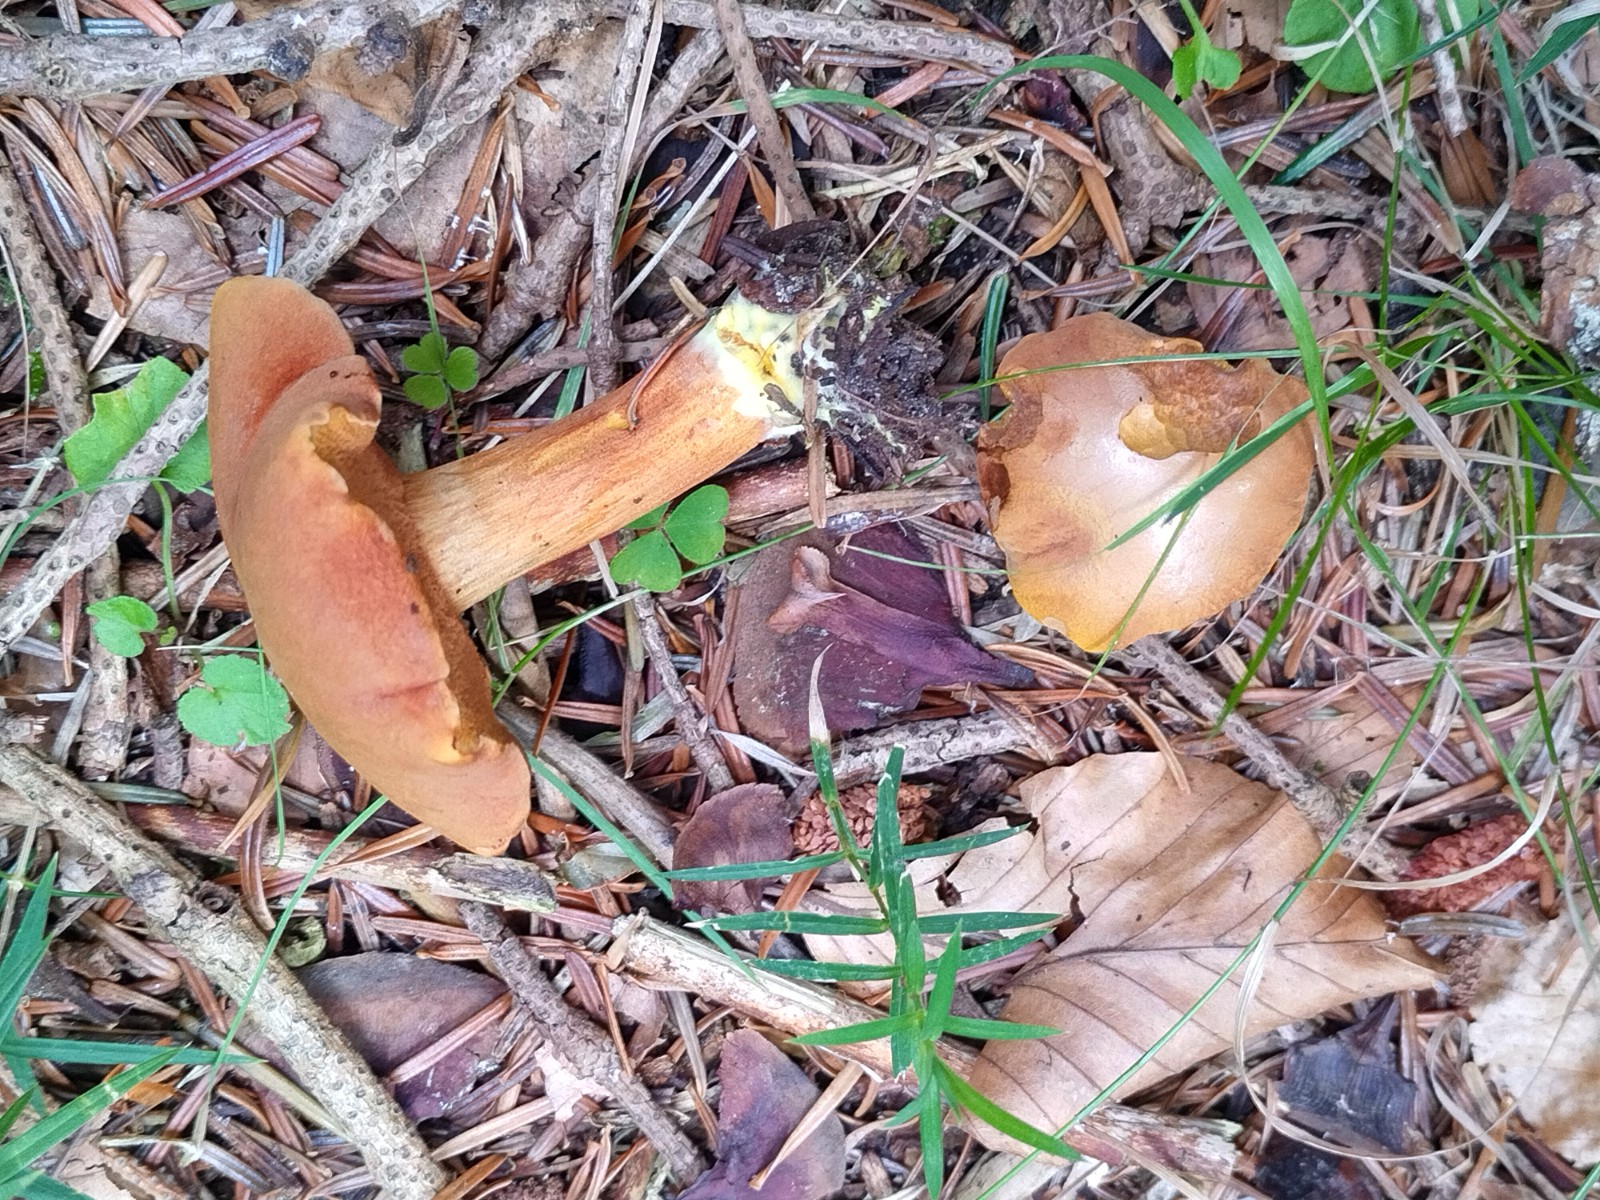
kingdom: Fungi
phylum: Basidiomycota
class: Agaricomycetes
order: Boletales
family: Boletaceae
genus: Chalciporus
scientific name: Chalciporus piperatus
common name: peberrørhat
